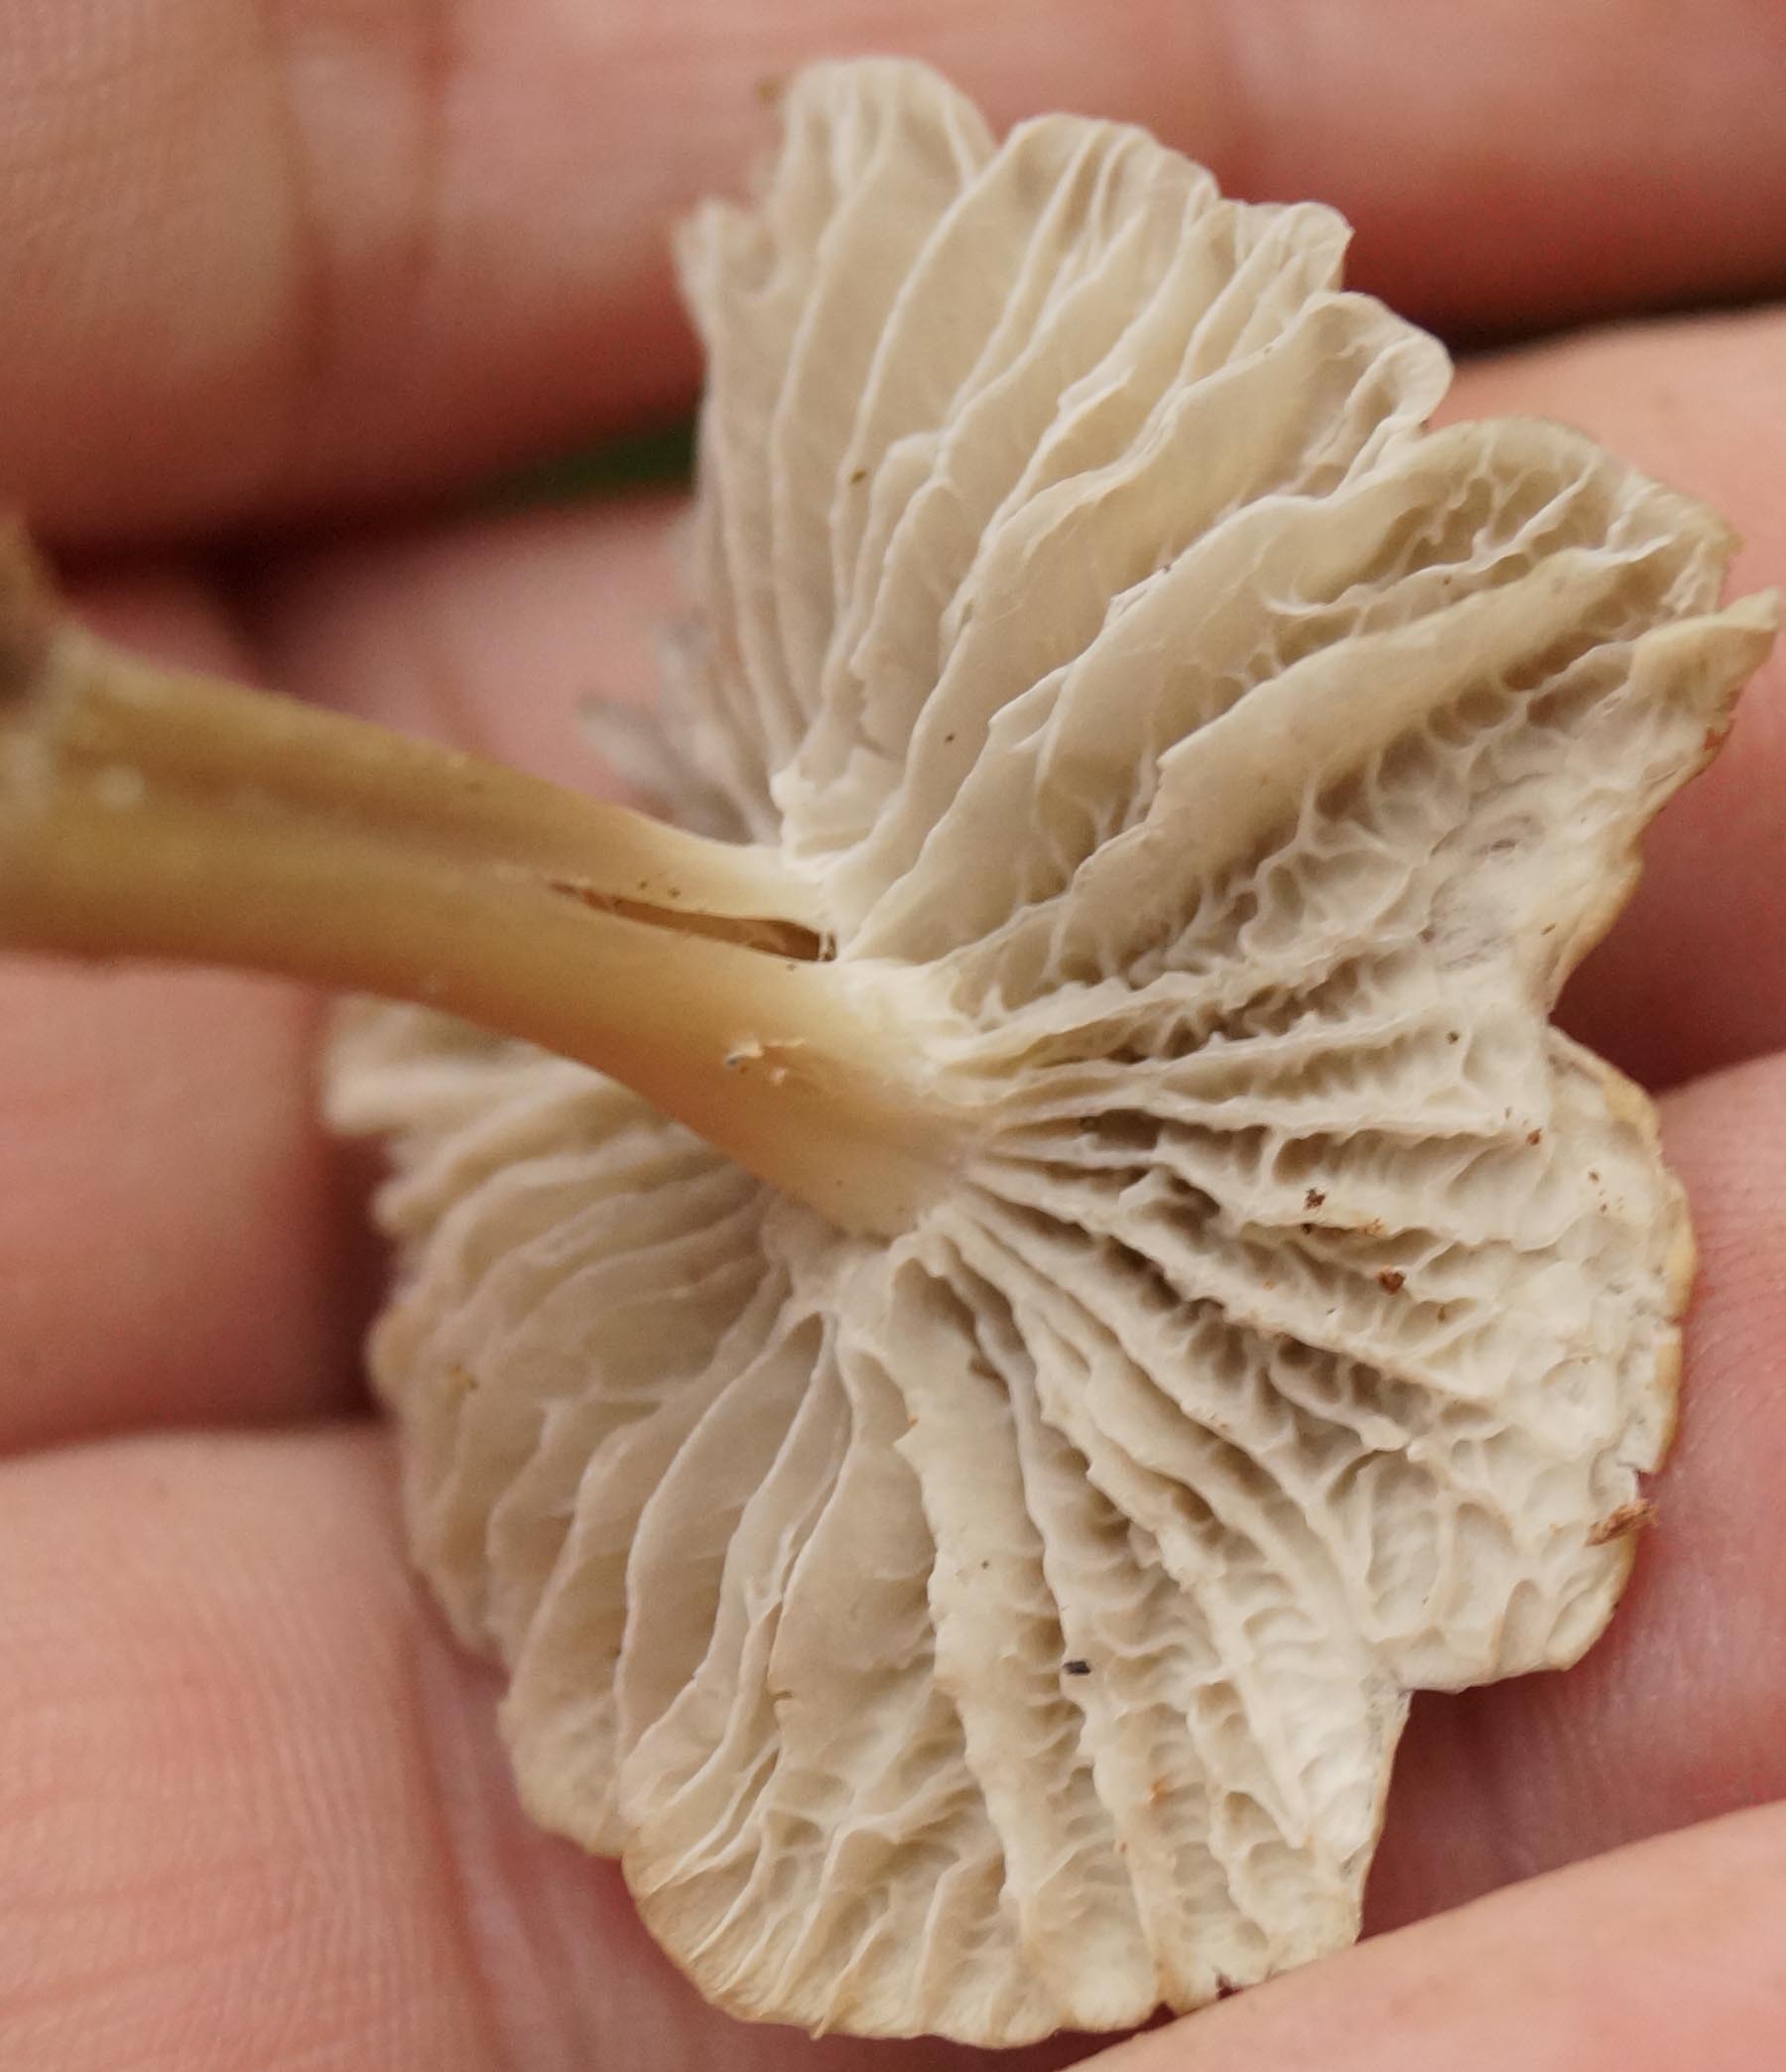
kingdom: Fungi
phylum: Basidiomycota
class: Agaricomycetes
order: Cantharellales
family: Hydnaceae
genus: Craterellus
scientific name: Craterellus tubaeformis
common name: tragt-kantarel
